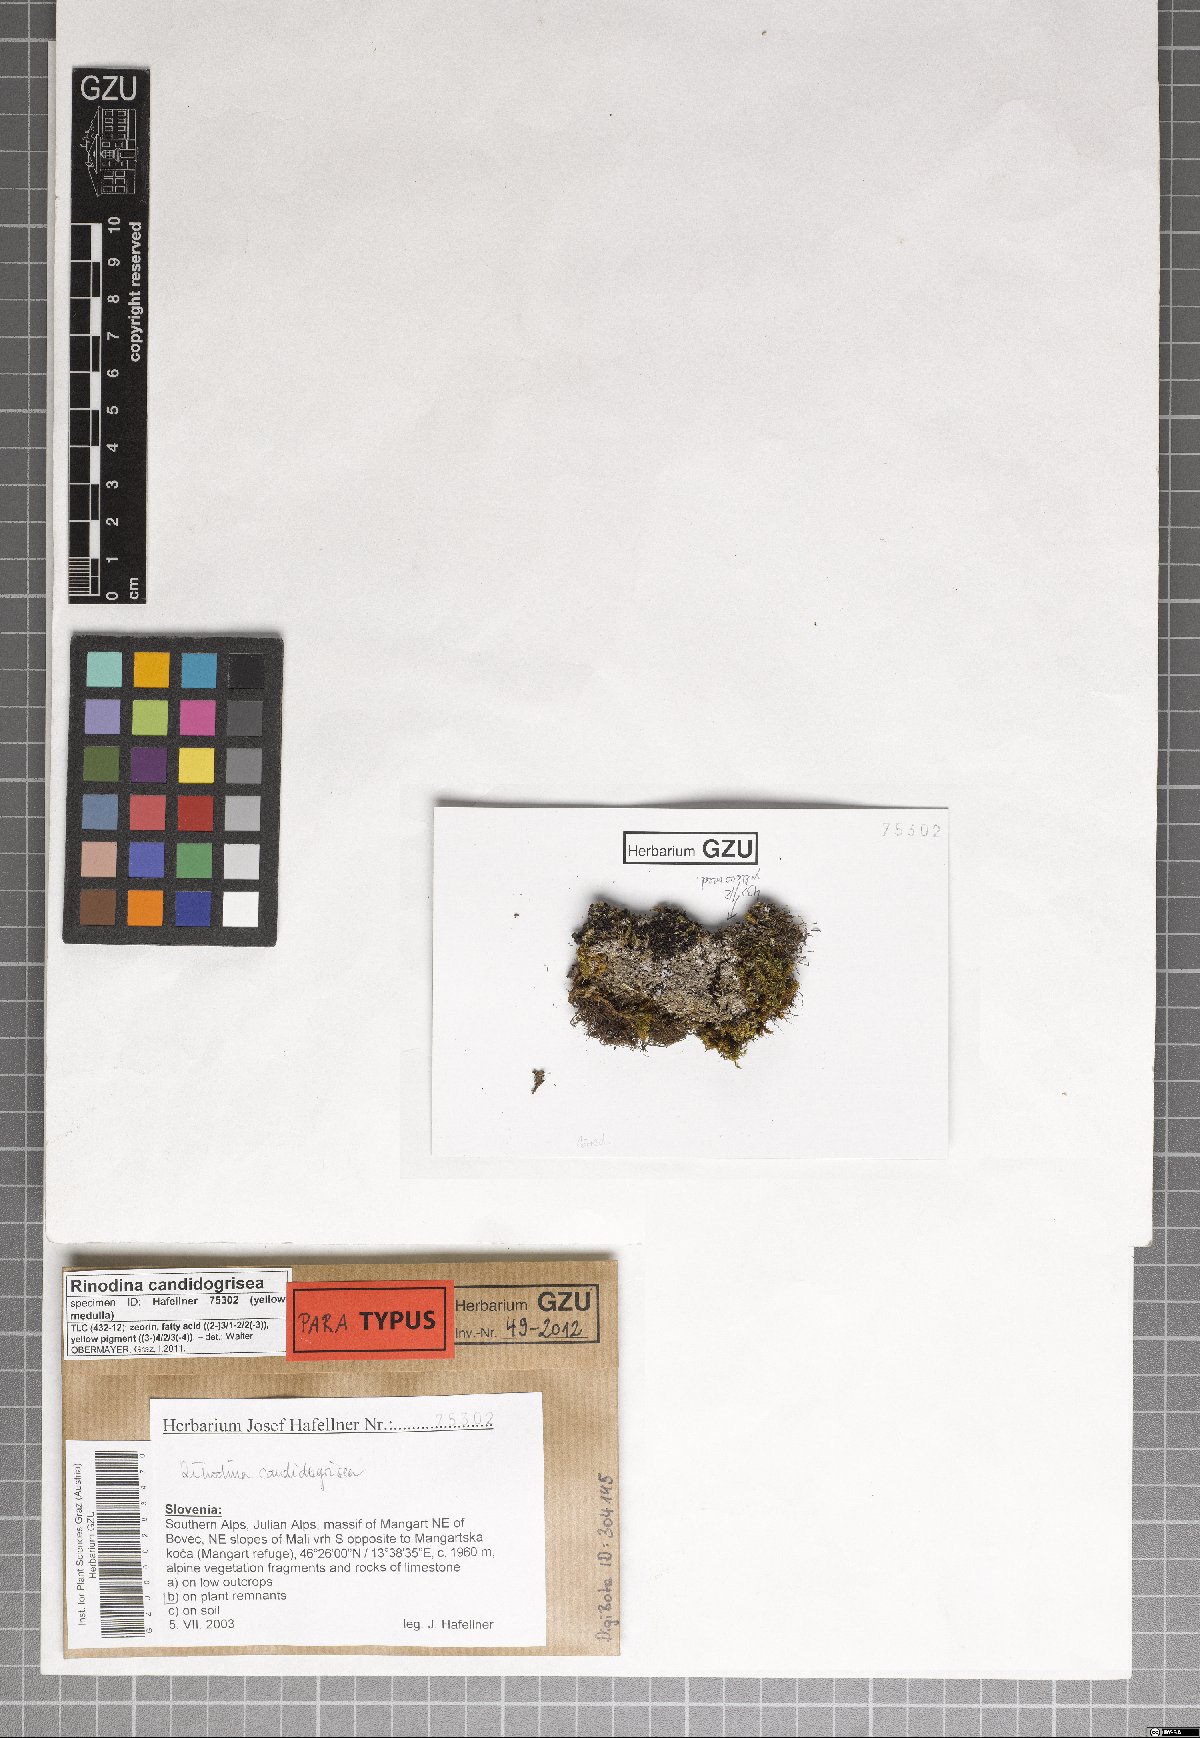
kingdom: Fungi
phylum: Ascomycota
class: Lecanoromycetes
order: Caliciales
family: Physciaceae
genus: Kudratovia
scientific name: Kudratovia candidogrisea
